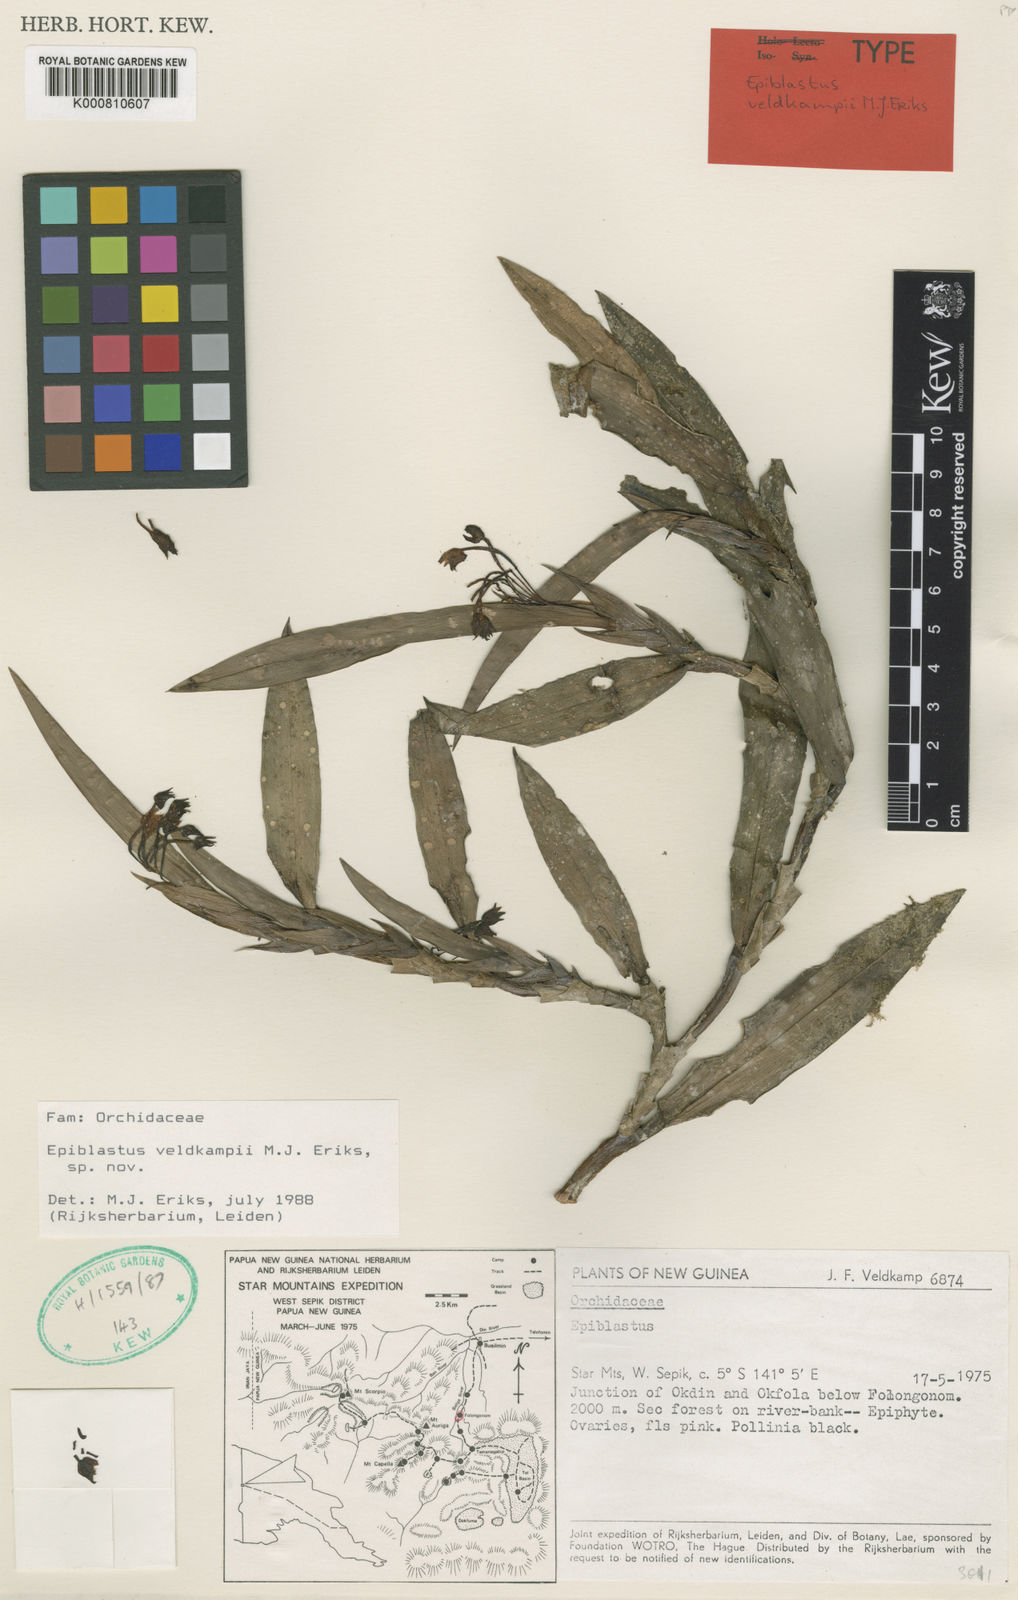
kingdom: Plantae
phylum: Tracheophyta
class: Liliopsida
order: Asparagales
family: Orchidaceae
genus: Epiblastus
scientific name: Epiblastus
